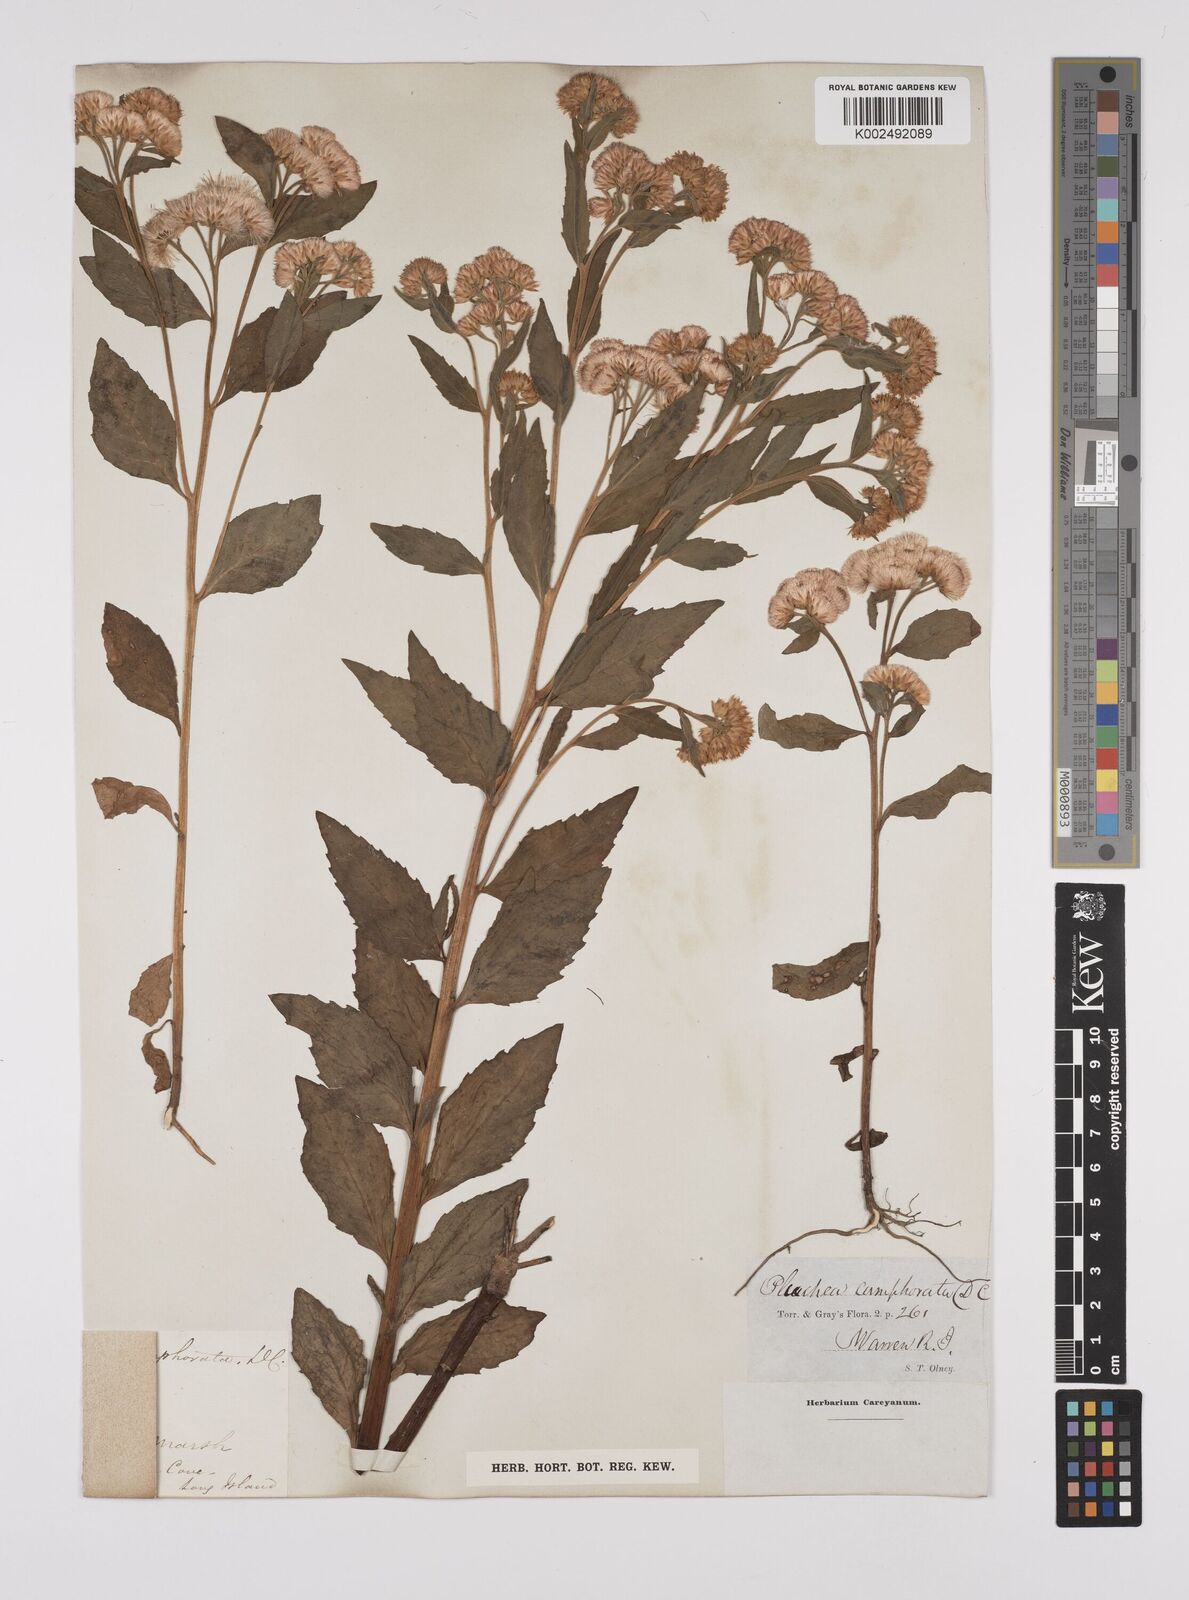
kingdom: Plantae
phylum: Tracheophyta
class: Magnoliopsida
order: Asterales
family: Asteraceae
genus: Pluchea
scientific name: Pluchea camphorata
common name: Camphor pluchea
